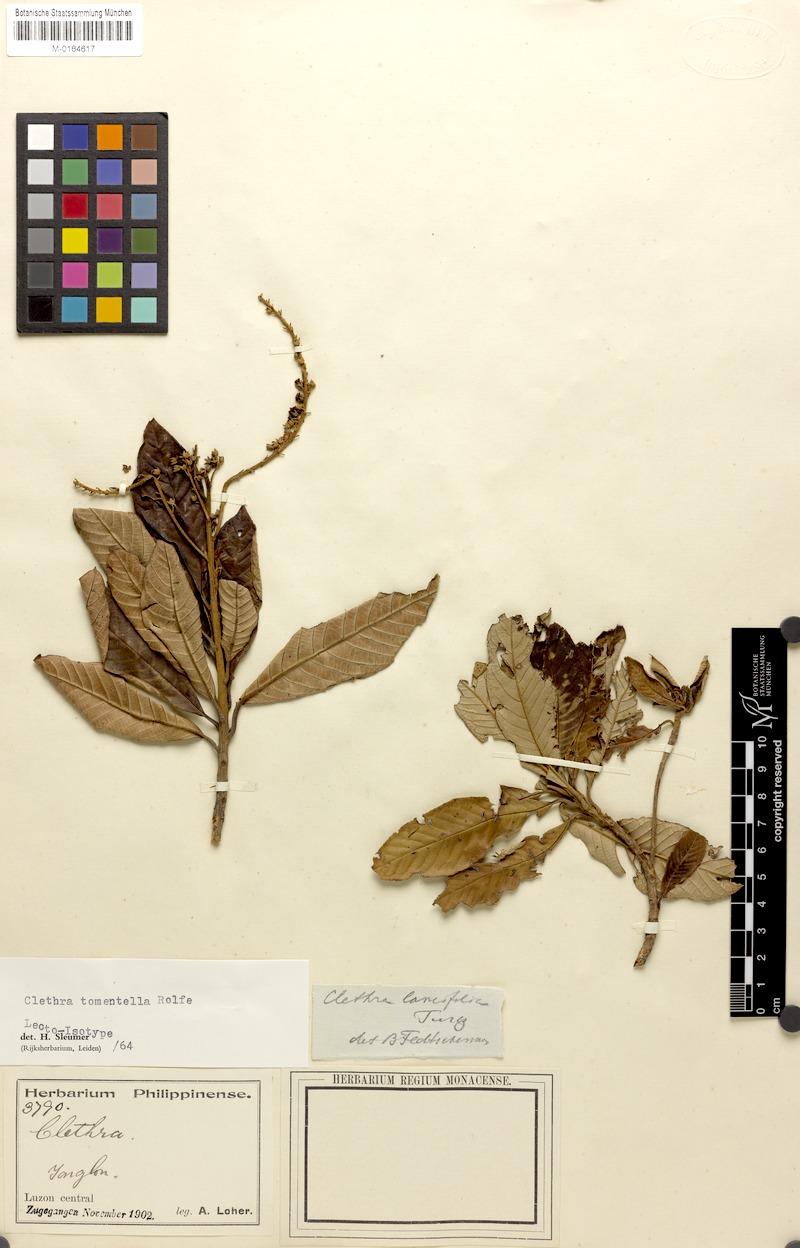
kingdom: Plantae
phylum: Tracheophyta
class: Magnoliopsida
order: Ericales
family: Clethraceae
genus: Clethra
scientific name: Clethra tomentella
